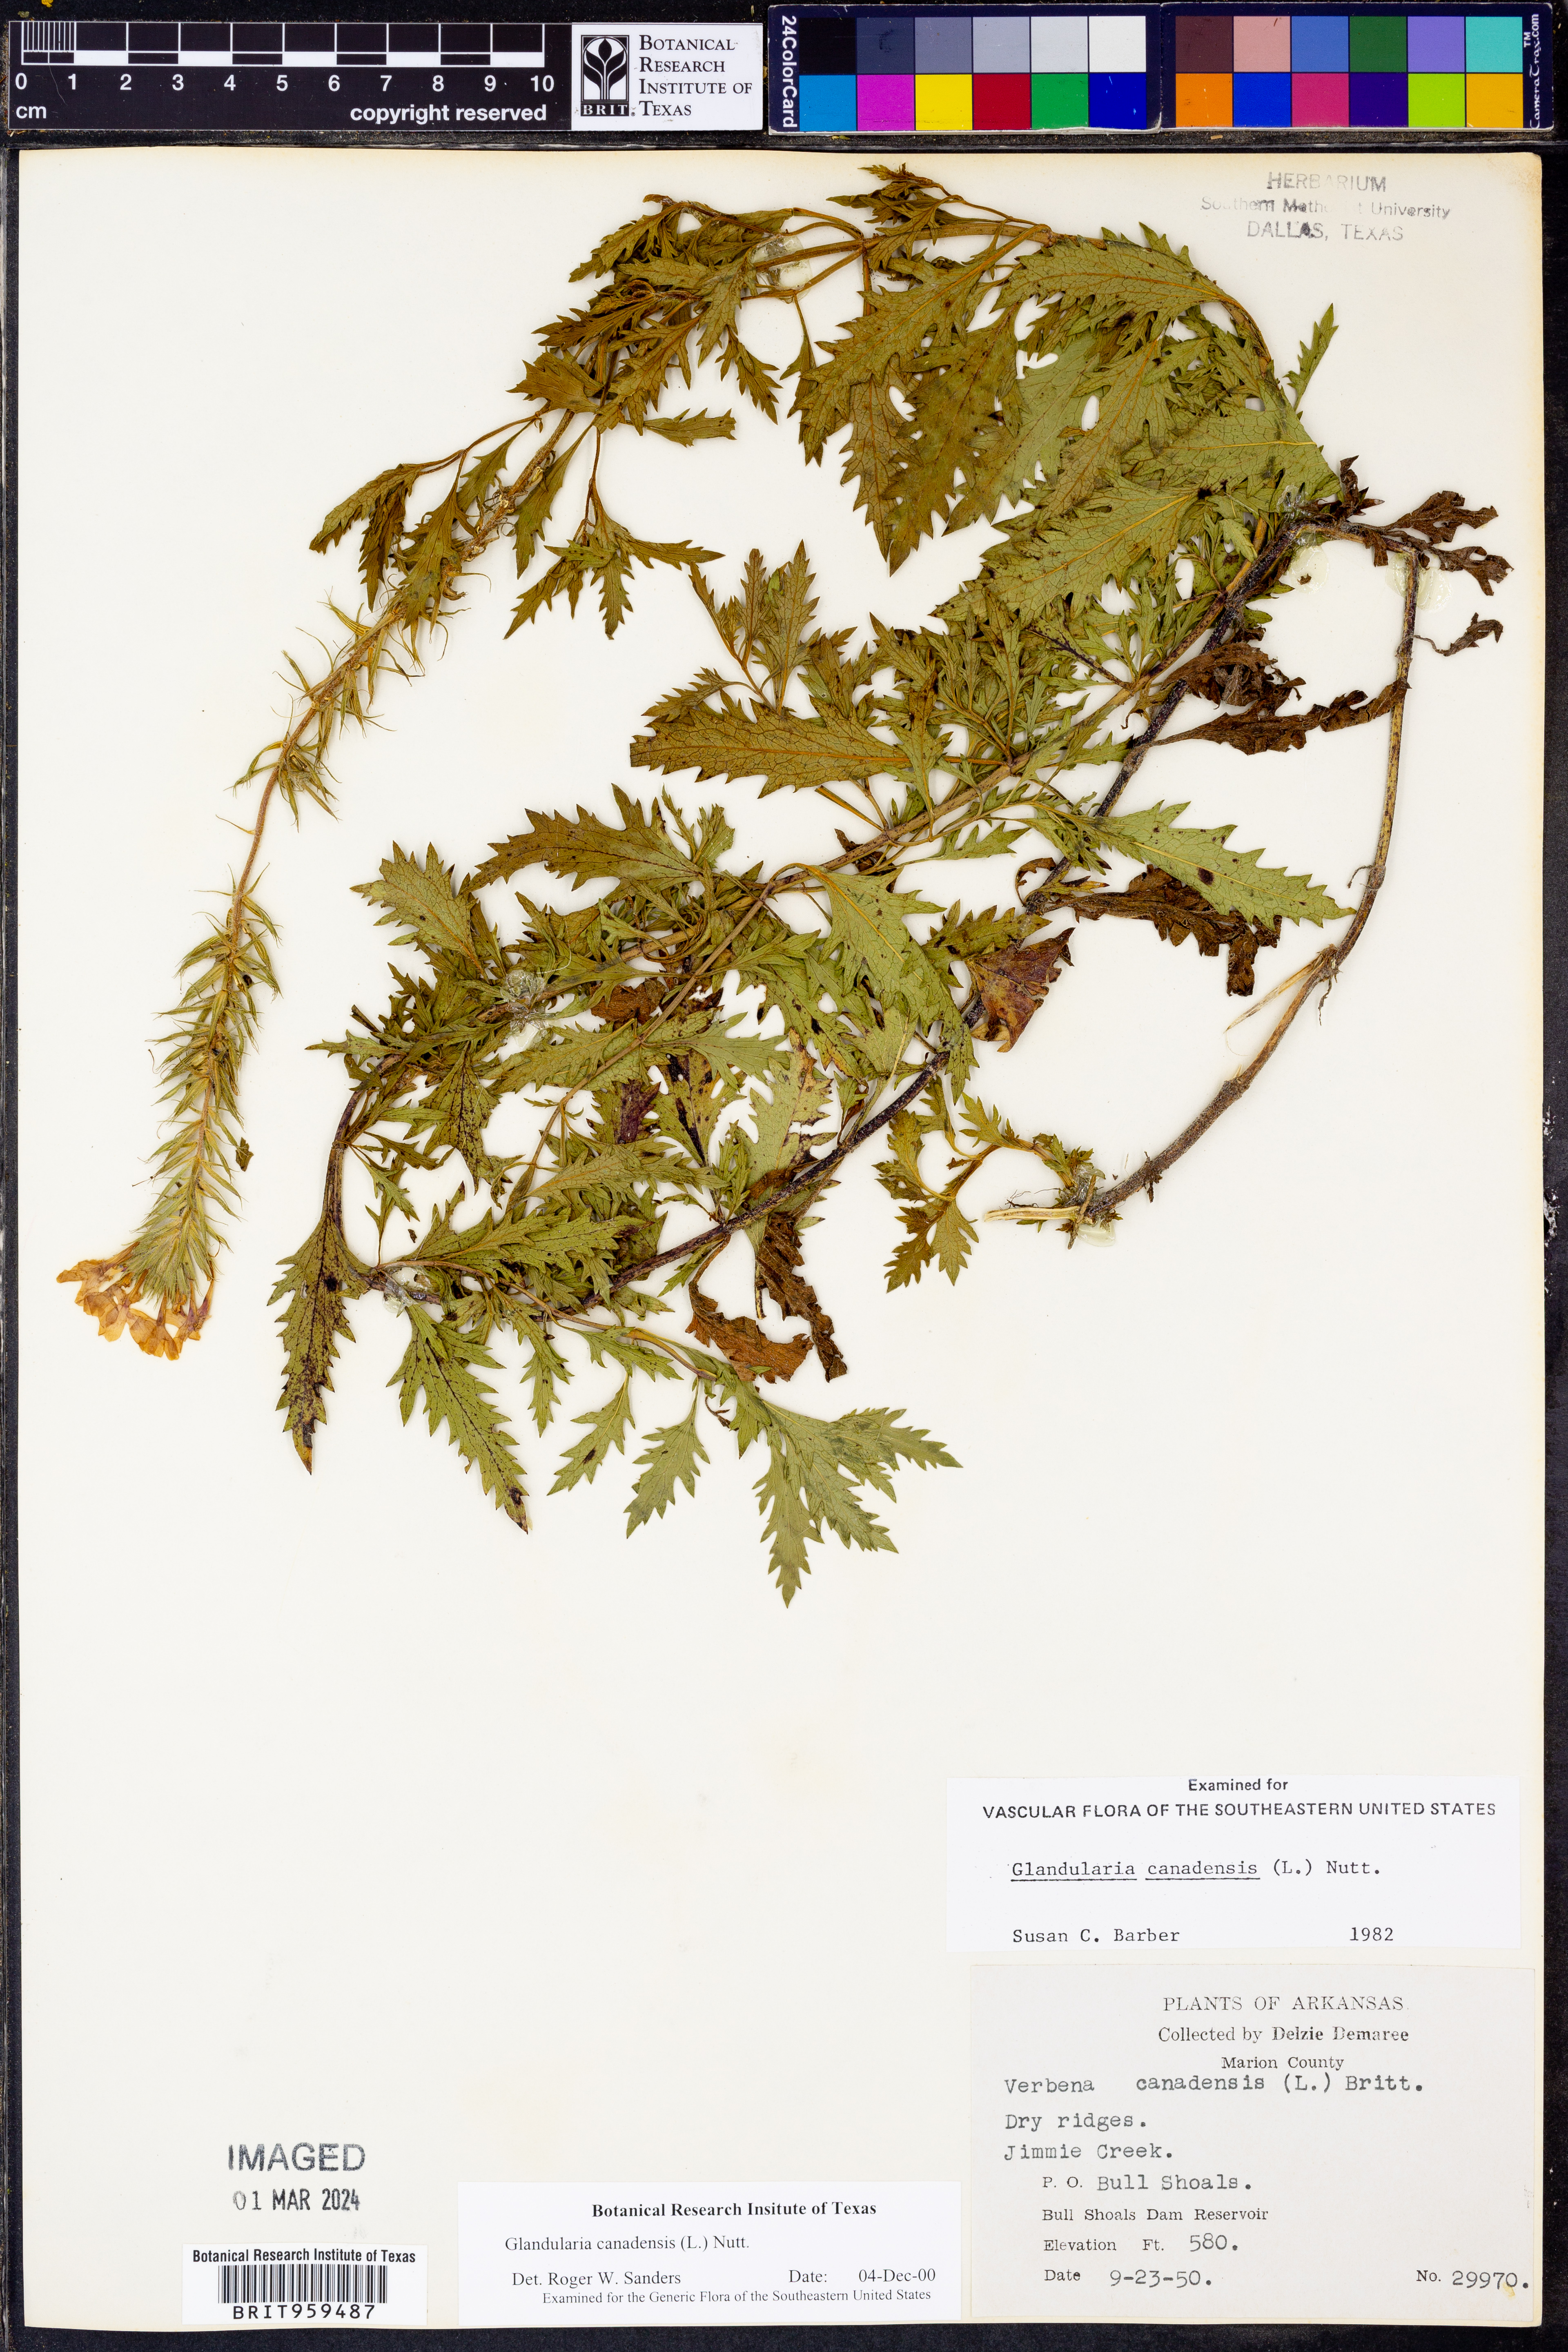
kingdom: Plantae
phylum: Tracheophyta
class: Magnoliopsida
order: Lamiales
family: Verbenaceae
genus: Verbena
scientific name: Verbena canadensis
